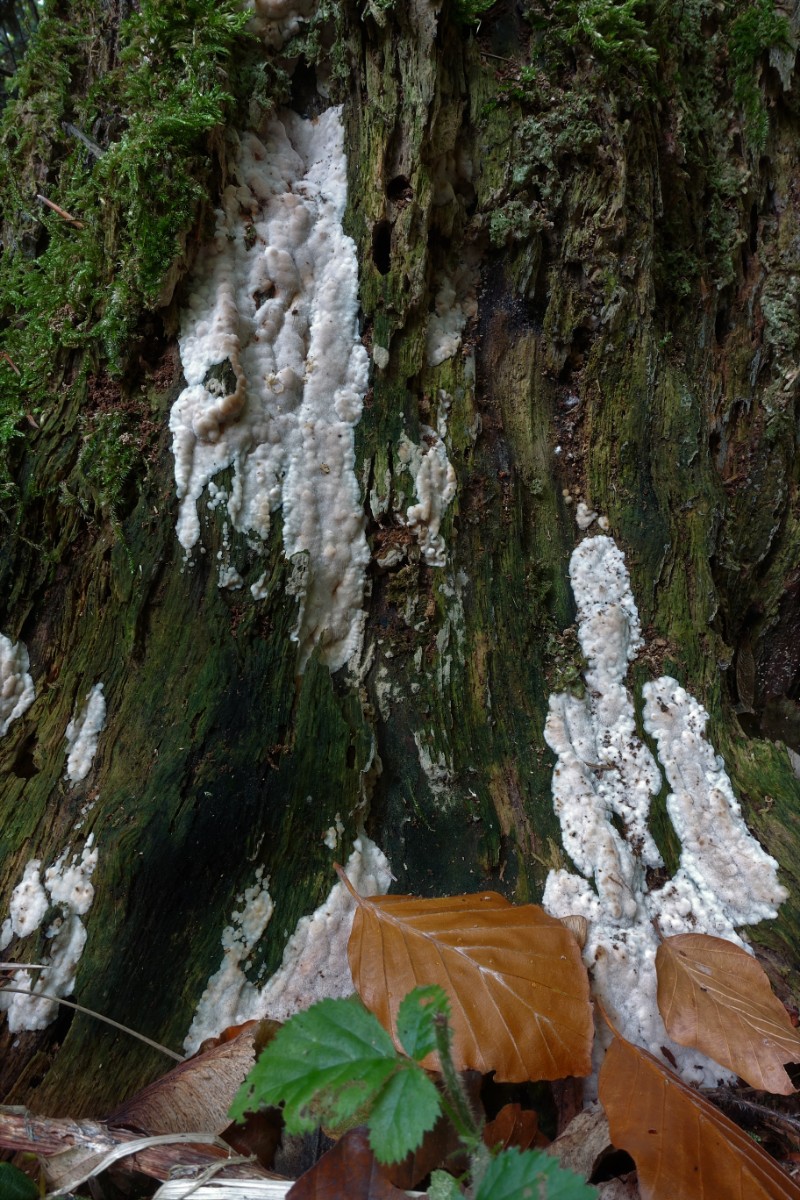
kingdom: Fungi
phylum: Basidiomycota
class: Agaricomycetes
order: Polyporales
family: Meruliaceae
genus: Physisporinus
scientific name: Physisporinus vitreus
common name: mastesvamp
